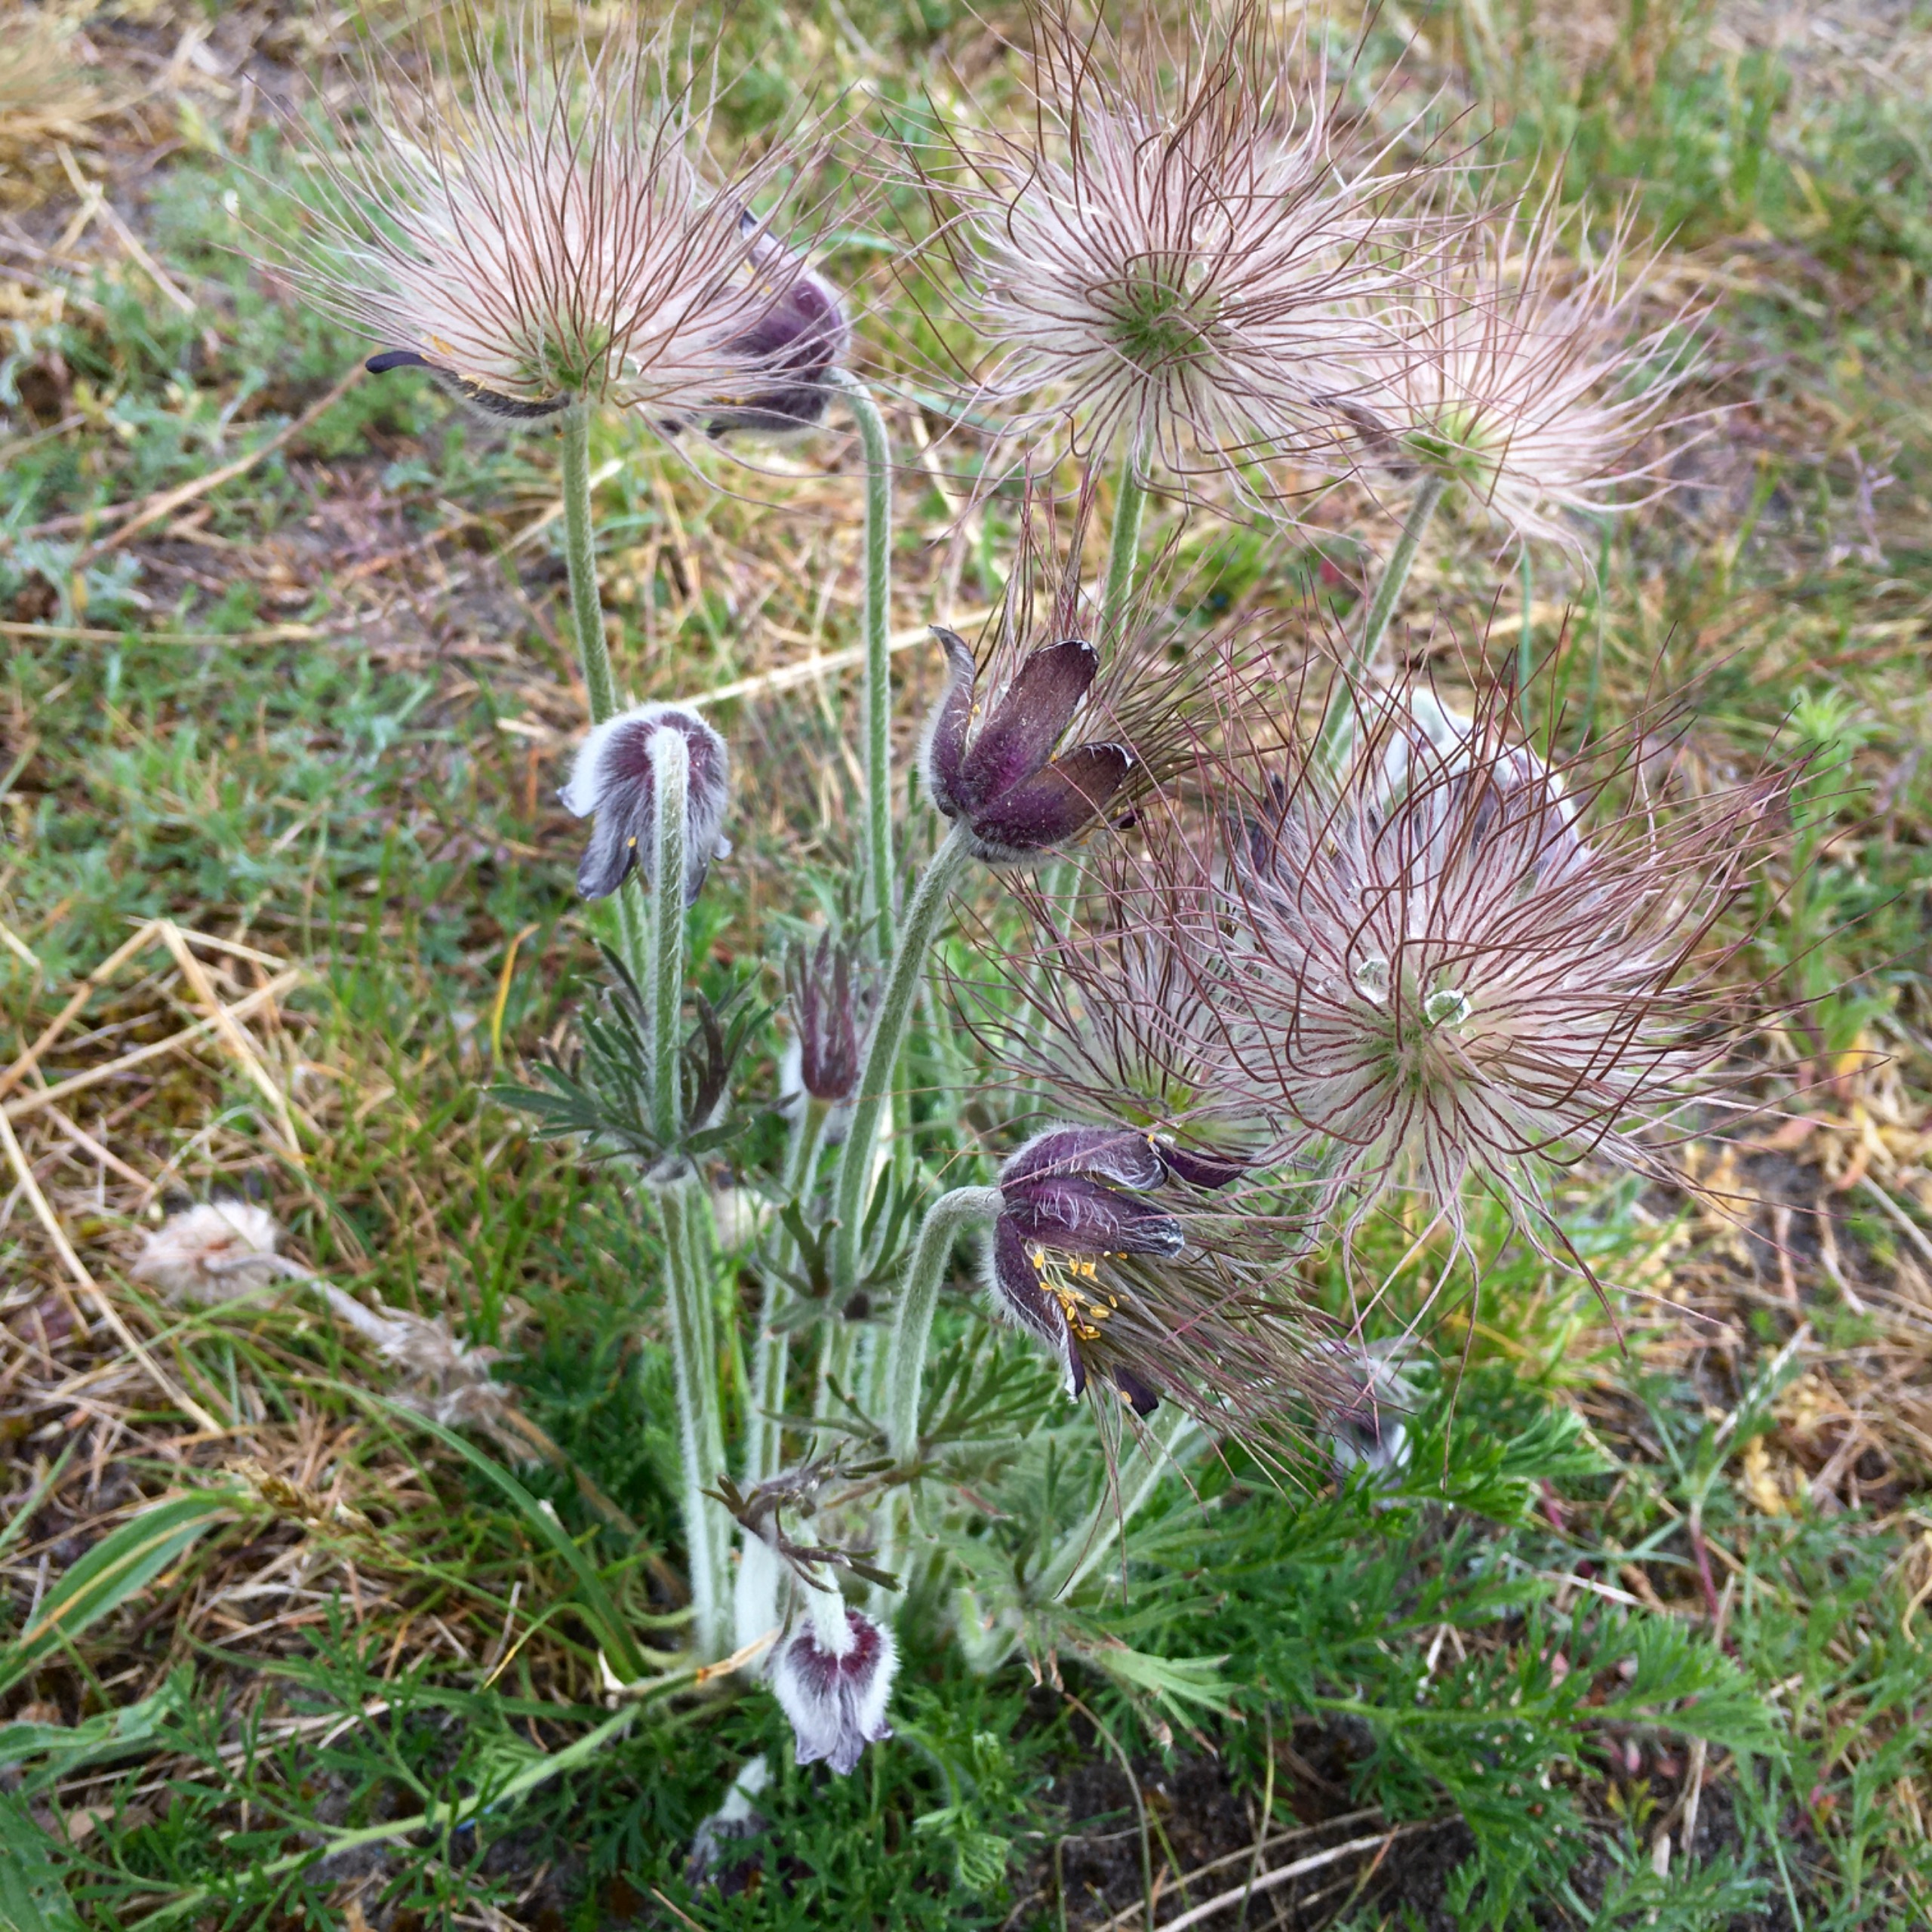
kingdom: Plantae
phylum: Tracheophyta
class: Magnoliopsida
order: Ranunculales
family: Ranunculaceae
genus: Pulsatilla
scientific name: Pulsatilla pratensis
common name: Nikkende kobjælde
